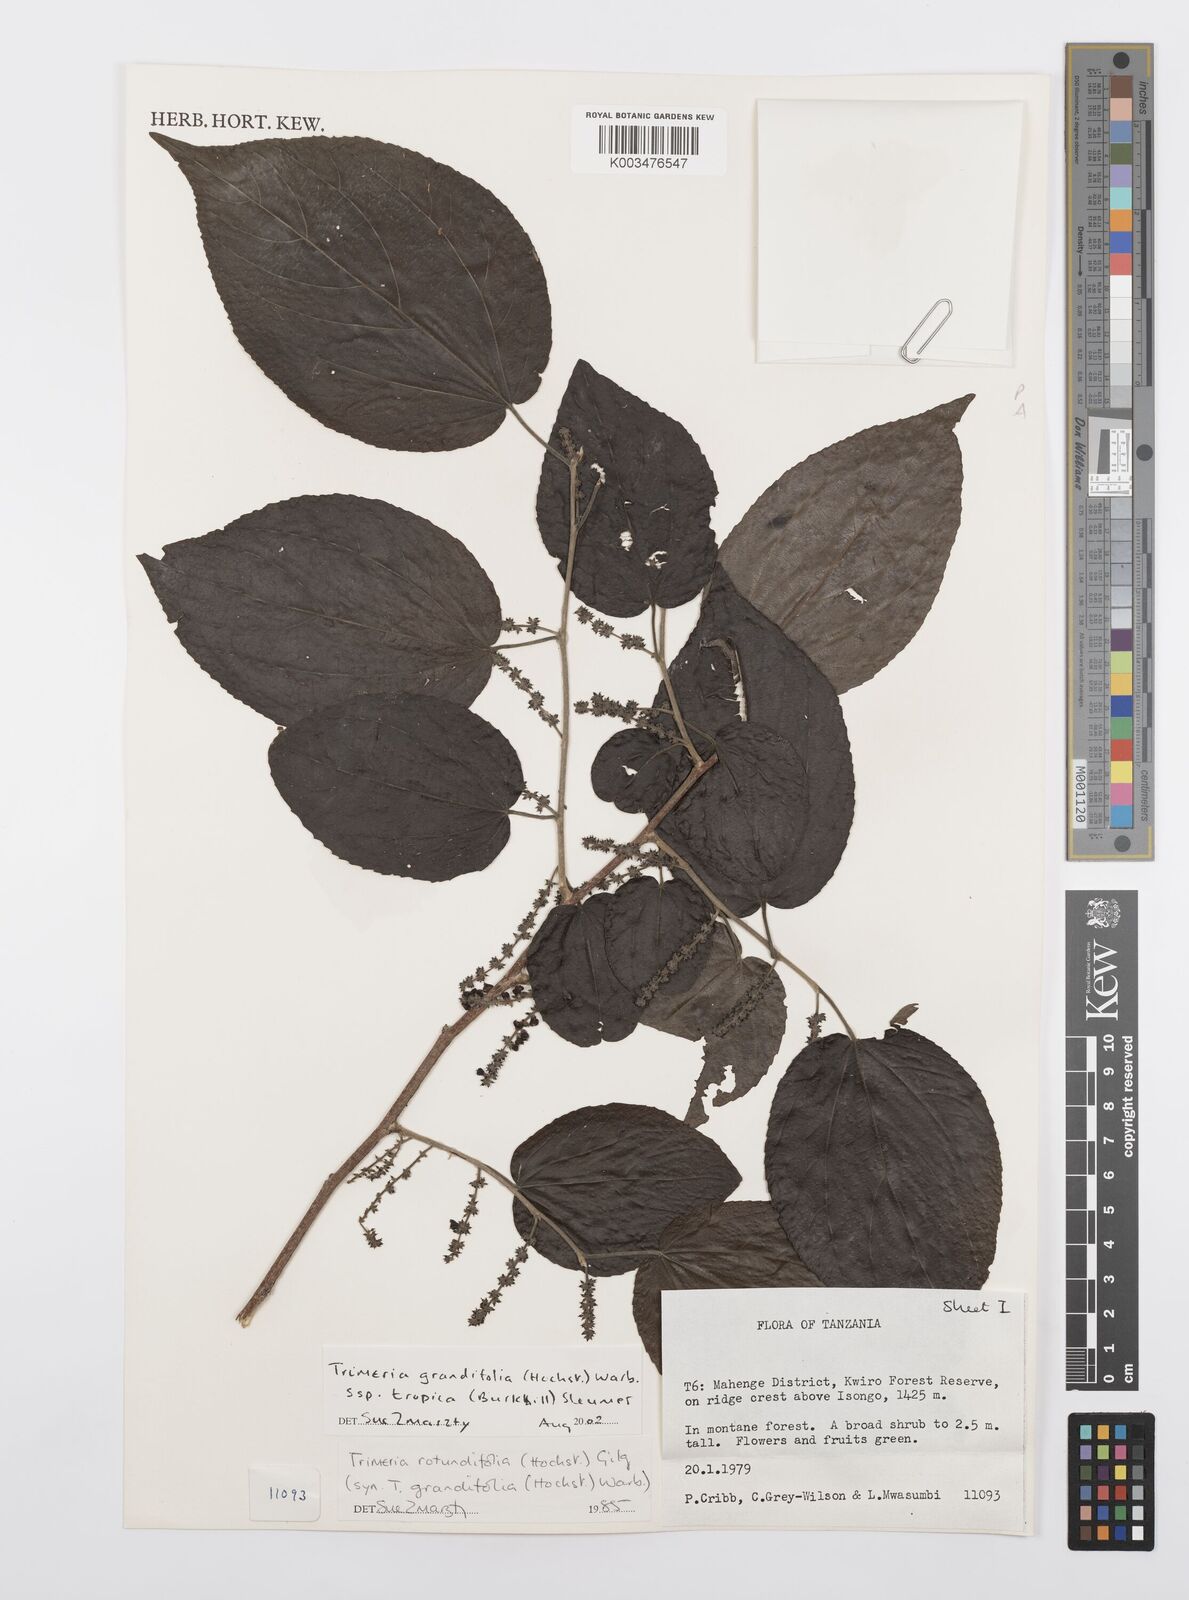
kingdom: Plantae
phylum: Tracheophyta
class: Magnoliopsida
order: Malpighiales
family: Salicaceae
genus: Trimeria
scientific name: Trimeria grandifolia
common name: Wild mulberry
